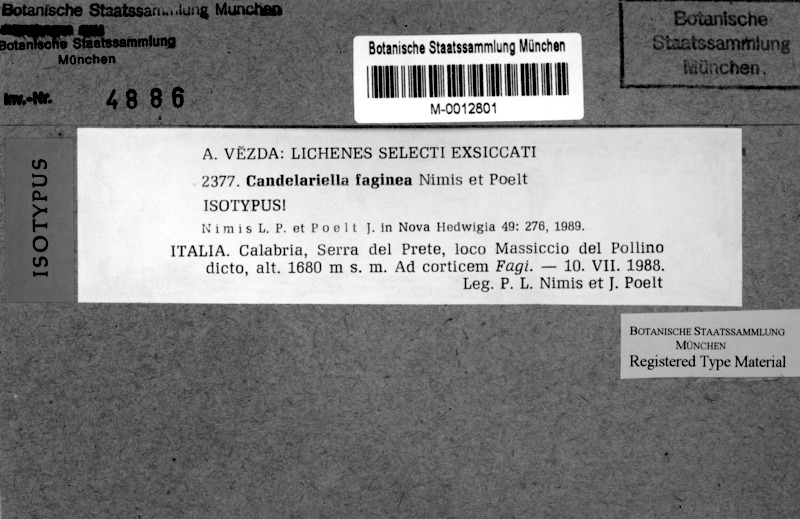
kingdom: Fungi
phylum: Ascomycota
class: Candelariomycetes
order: Candelariales
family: Candelariaceae
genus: Candelariella
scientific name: Candelariella faginea
